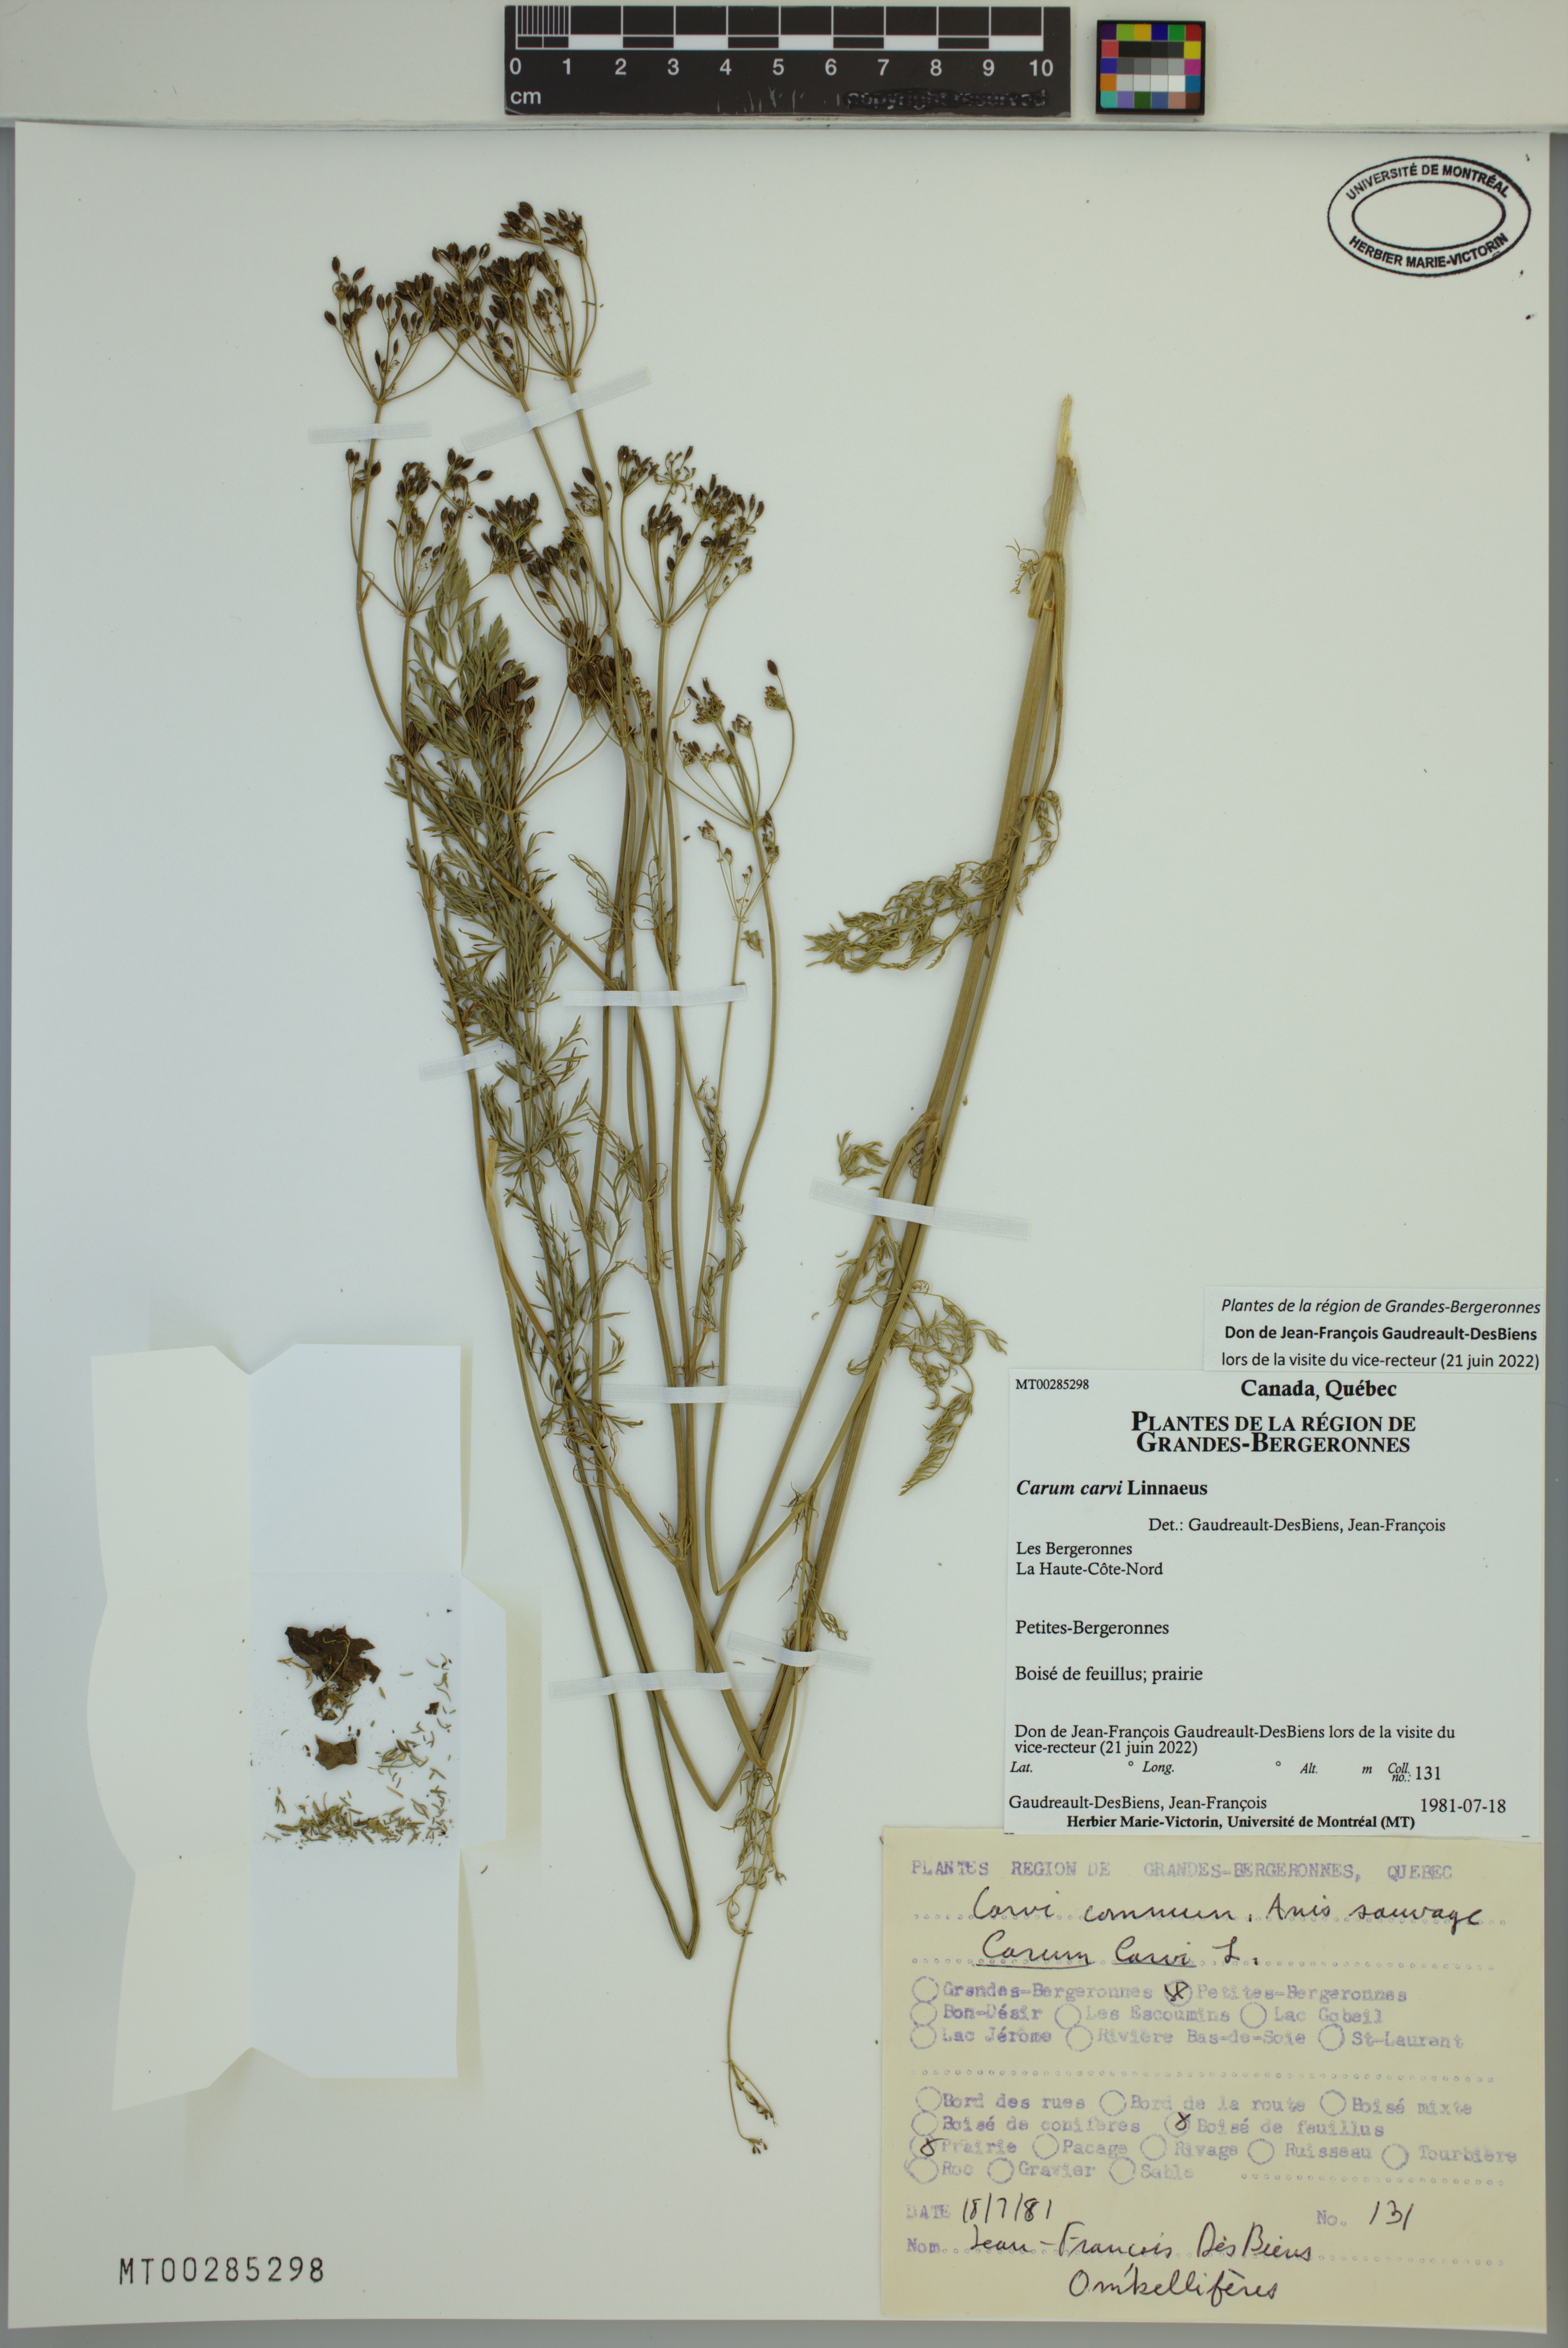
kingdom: Plantae
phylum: Tracheophyta
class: Magnoliopsida
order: Apiales
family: Apiaceae
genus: Carum
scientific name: Carum carvi
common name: Caraway
